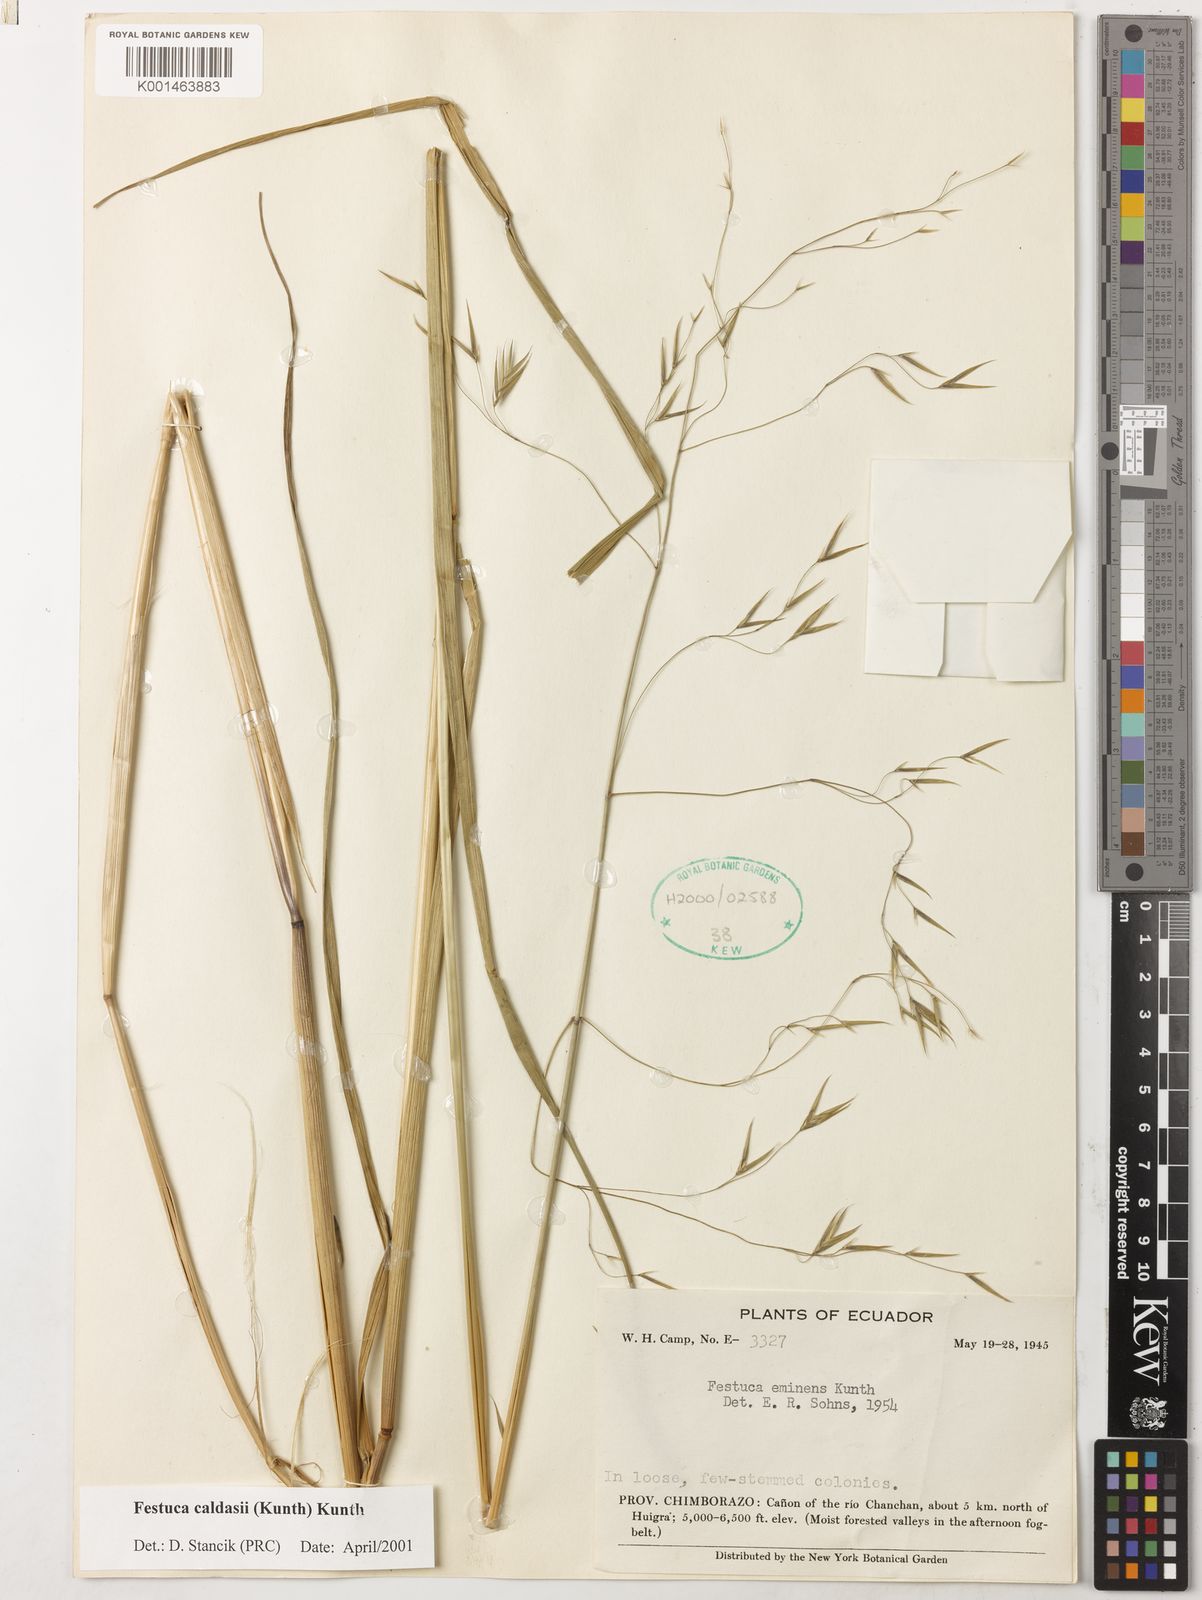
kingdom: Plantae
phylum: Tracheophyta
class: Liliopsida
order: Poales
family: Poaceae
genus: Festuca
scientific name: Festuca caldasii
